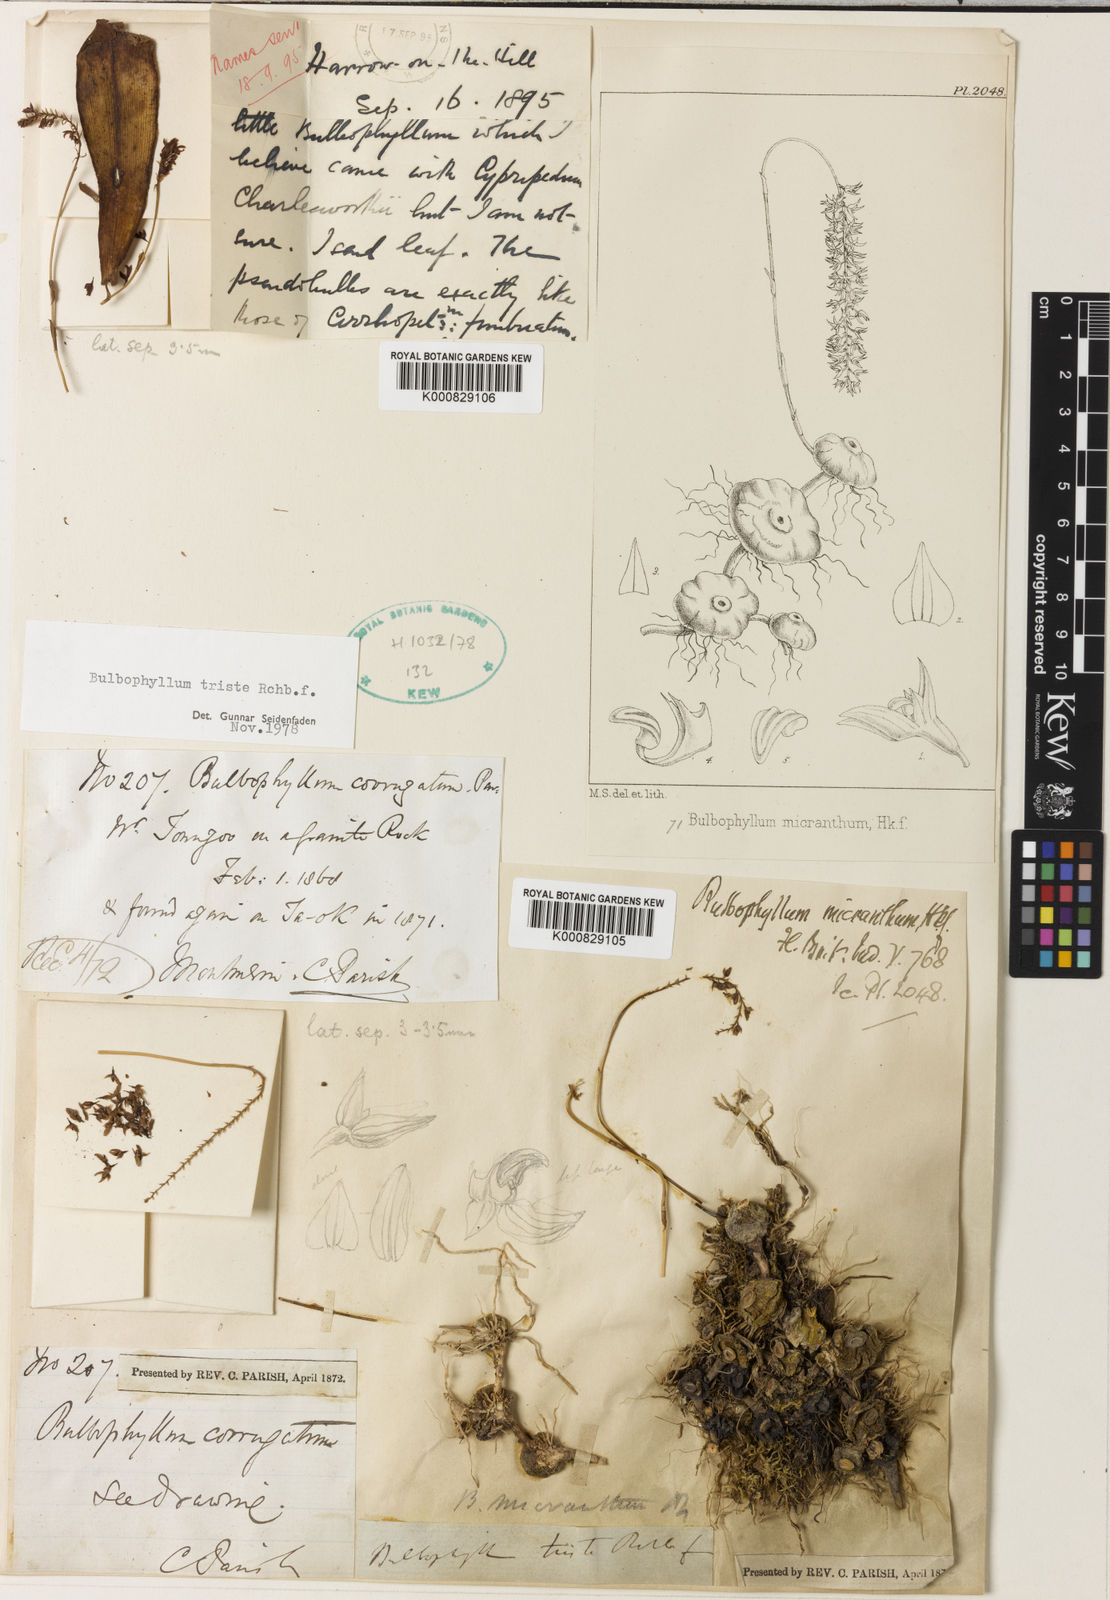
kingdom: Plantae
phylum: Tracheophyta
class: Liliopsida
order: Asparagales
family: Orchidaceae
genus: Bulbophyllum
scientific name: Bulbophyllum triste
